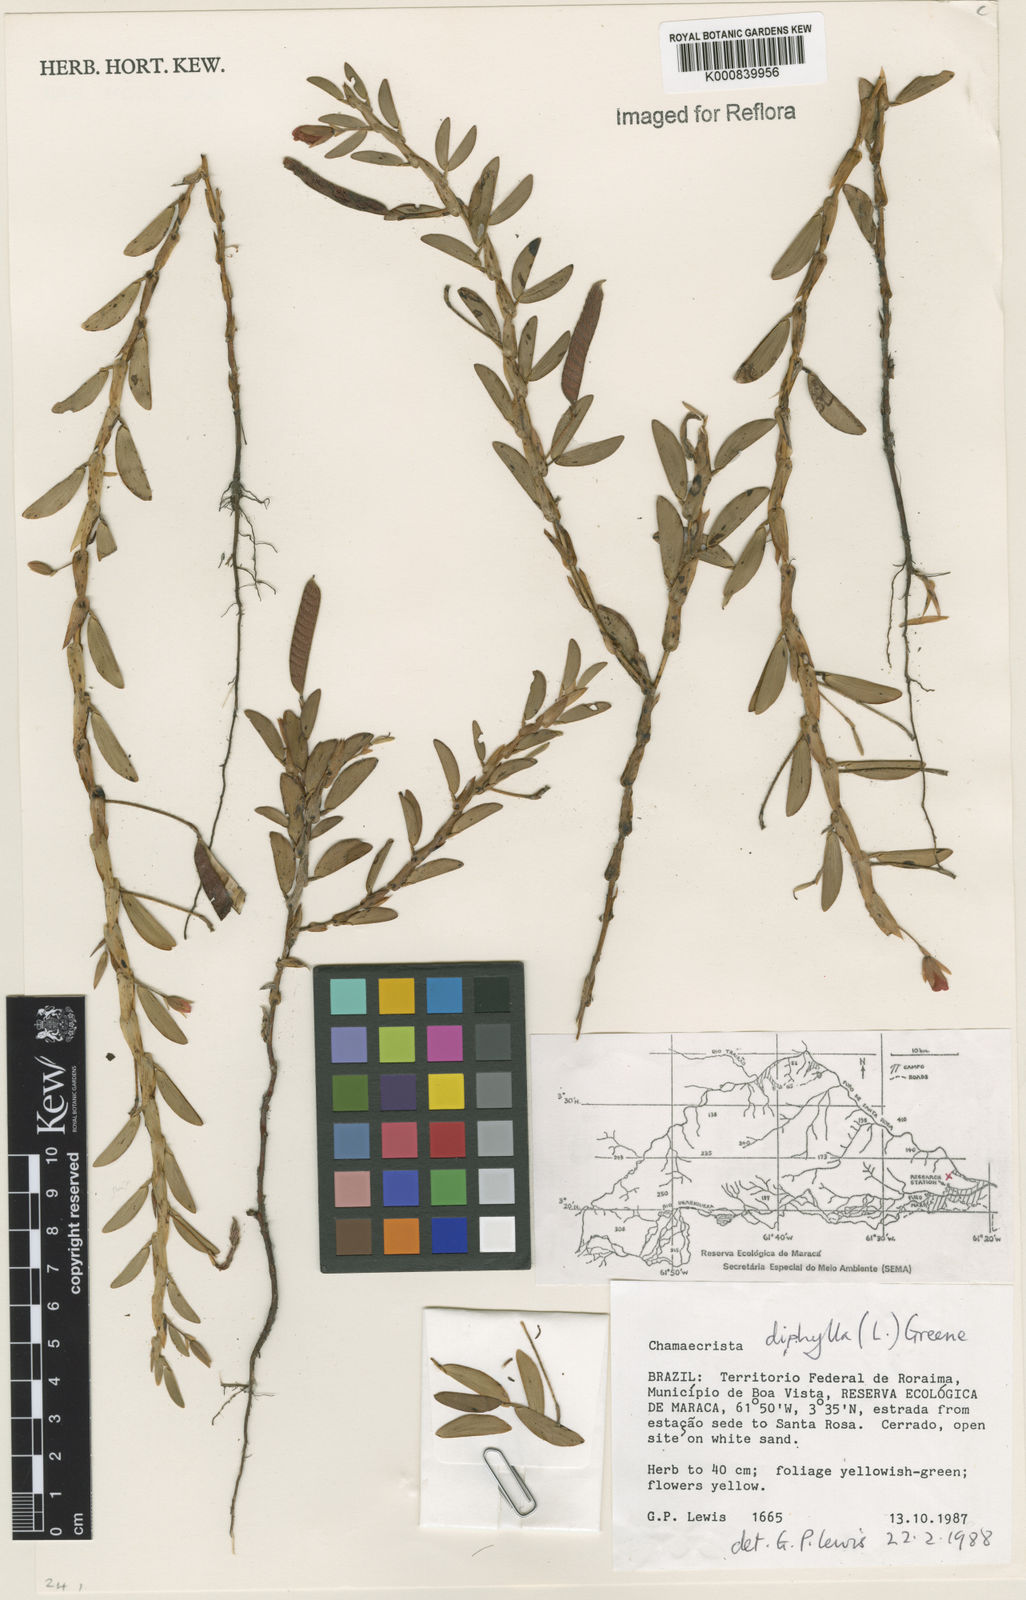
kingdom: Plantae
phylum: Tracheophyta
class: Magnoliopsida
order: Fabales
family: Fabaceae
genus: Chamaecrista
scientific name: Chamaecrista diphylla
